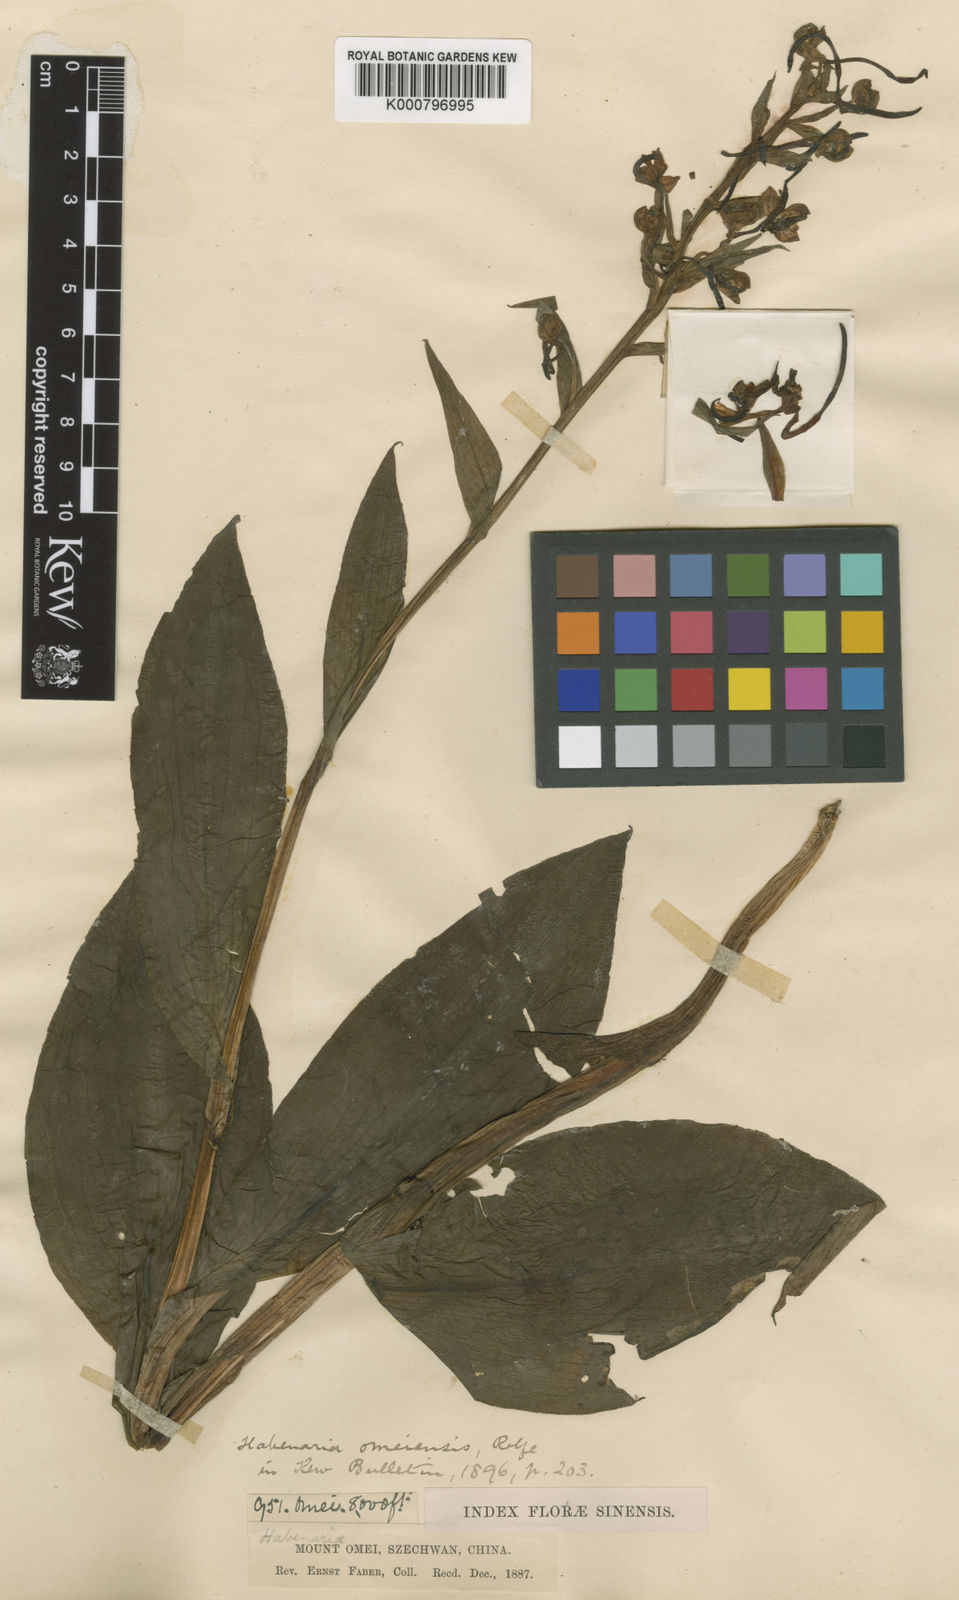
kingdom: Plantae
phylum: Tracheophyta
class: Liliopsida
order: Asparagales
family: Orchidaceae
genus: Platanthera
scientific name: Platanthera japonica
